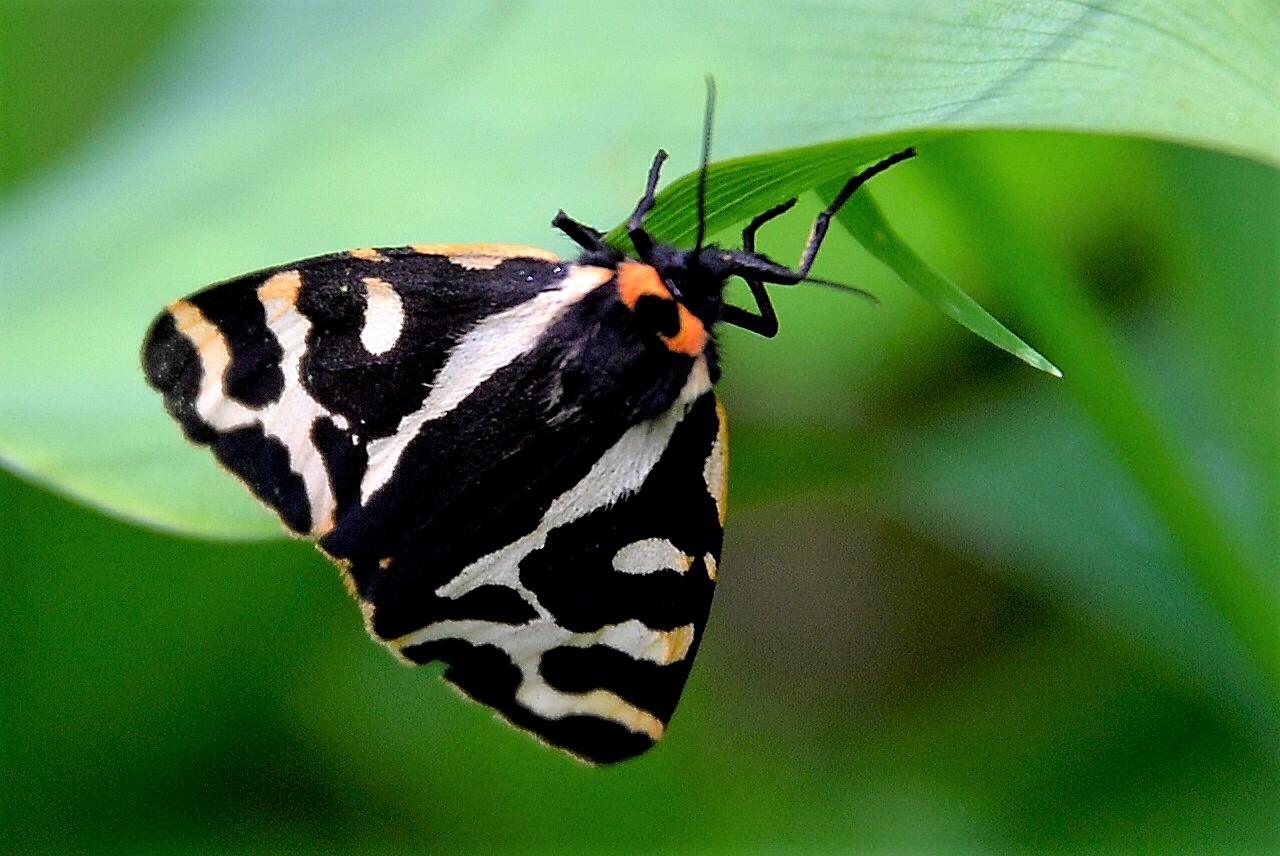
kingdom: Animalia
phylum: Arthropoda
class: Insecta
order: Lepidoptera
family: Erebidae
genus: Parasemia
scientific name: Parasemia plantaginis
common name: Wood tiger
